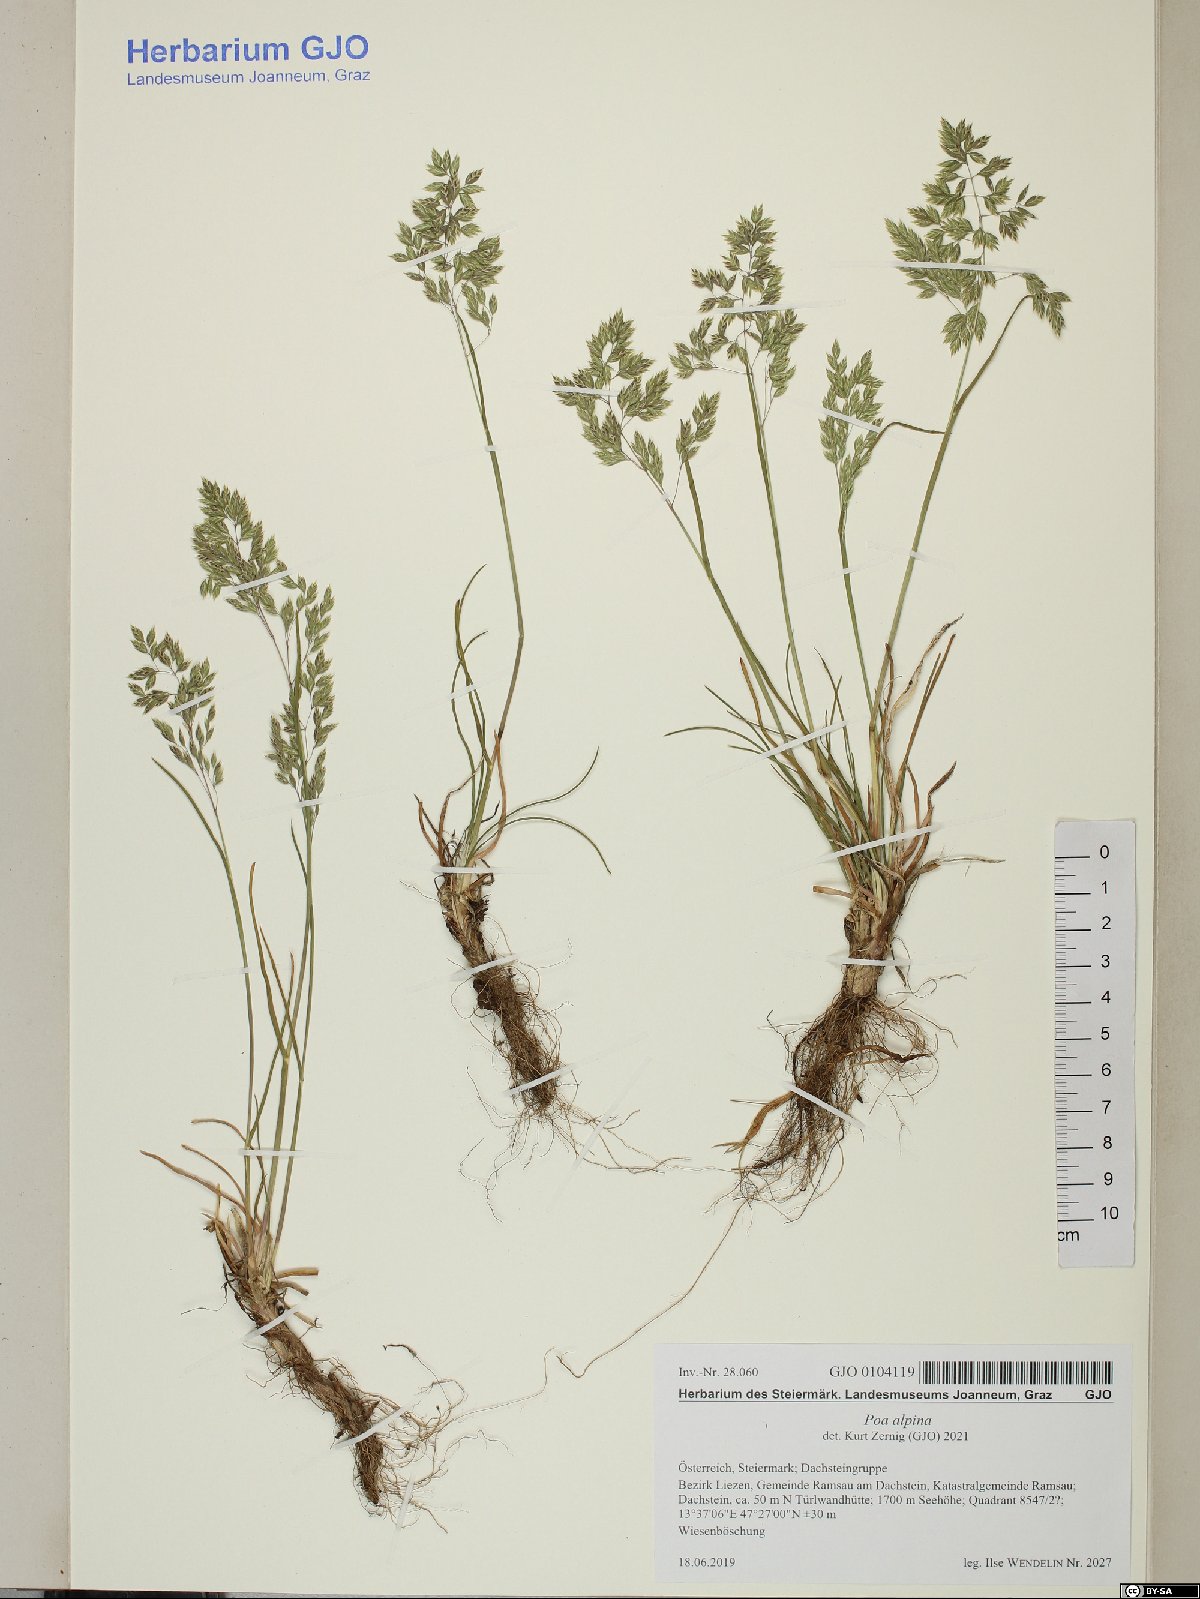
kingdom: Plantae
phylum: Tracheophyta
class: Liliopsida
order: Poales
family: Poaceae
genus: Poa
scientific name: Poa alpina
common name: Alpine bluegrass
